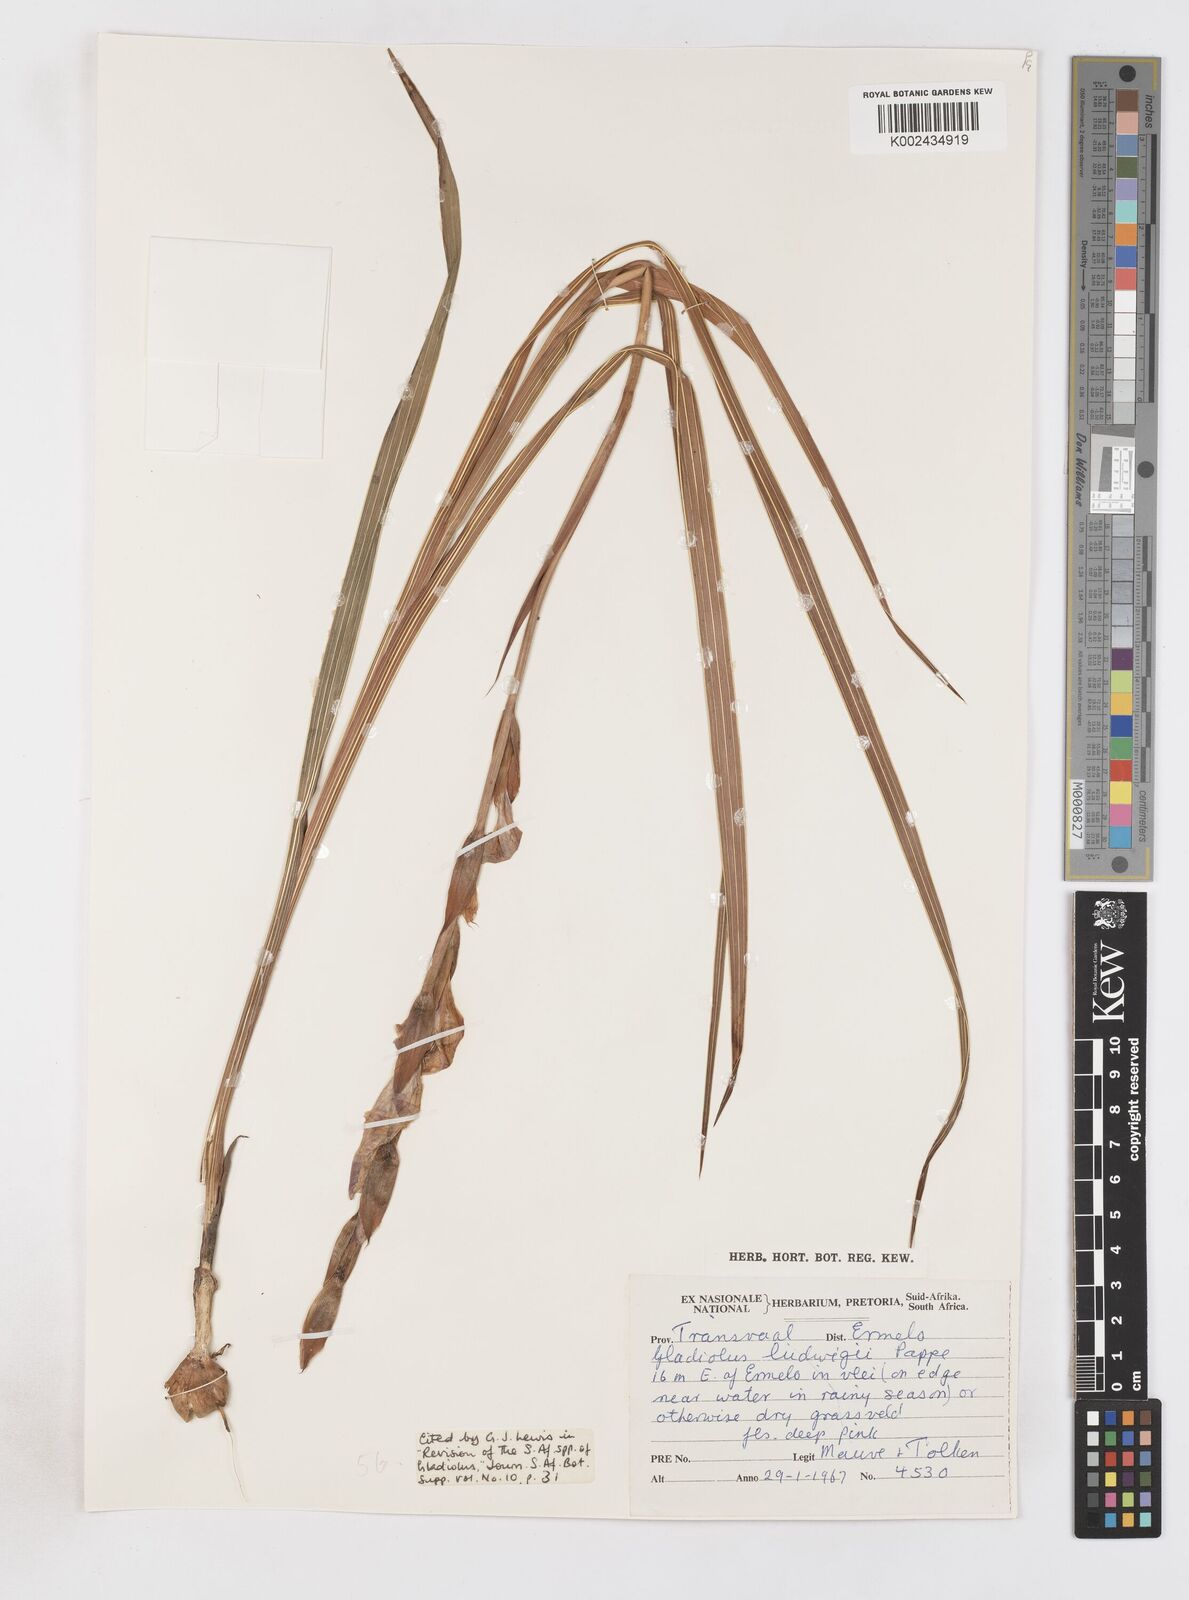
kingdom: Plantae
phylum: Tracheophyta
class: Liliopsida
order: Asparagales
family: Iridaceae
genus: Gladiolus
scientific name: Gladiolus sericeovillosus
